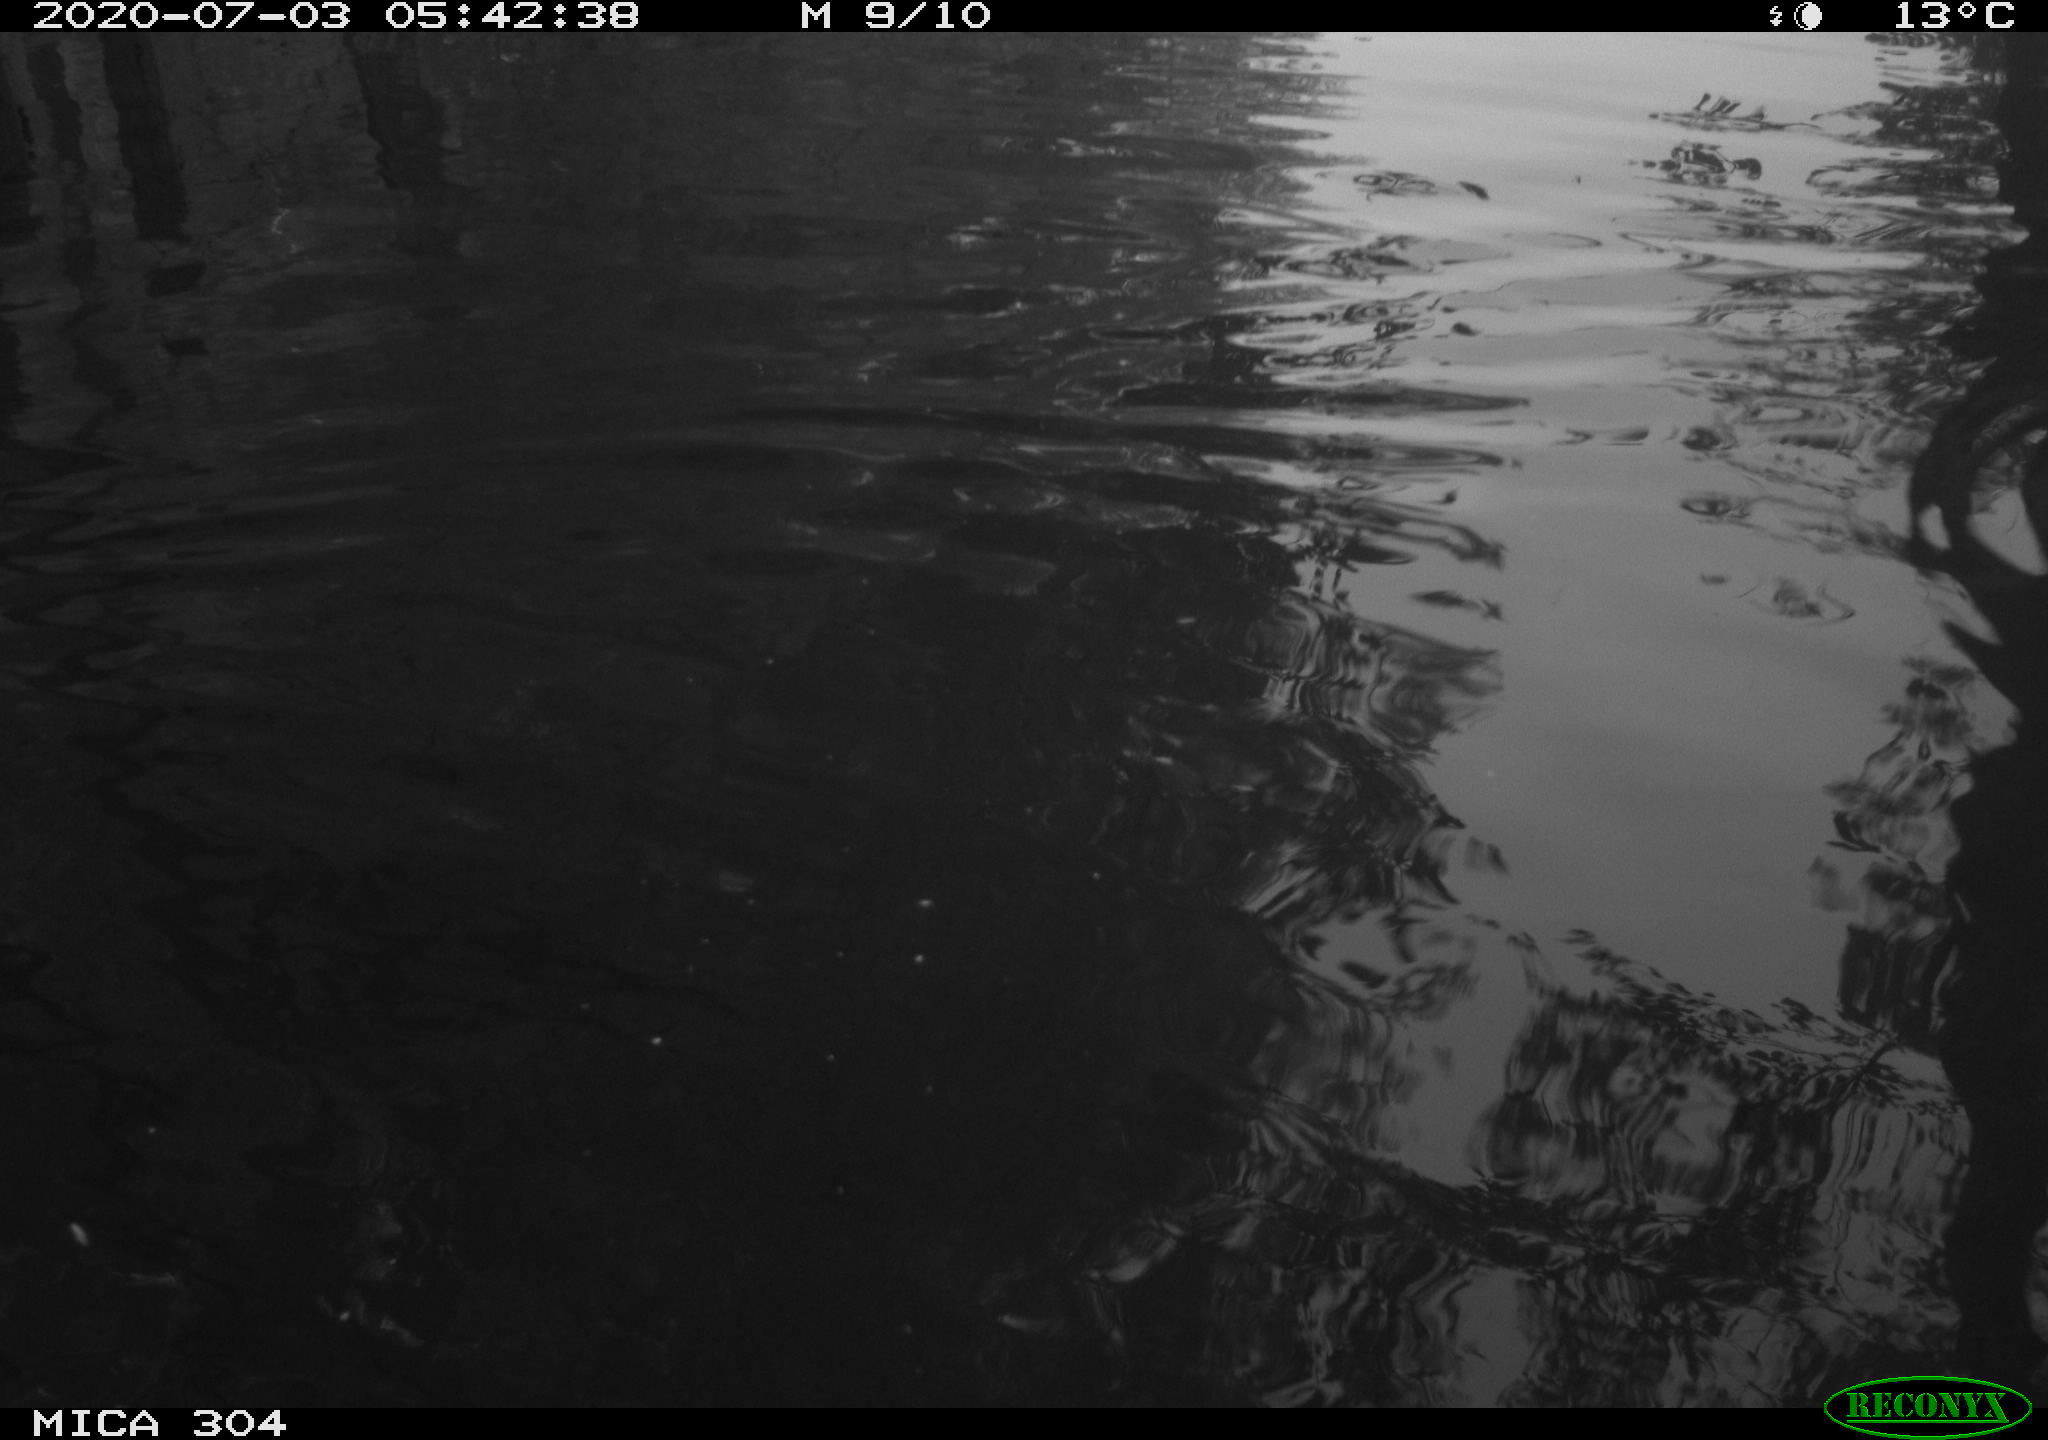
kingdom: Animalia
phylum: Chordata
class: Aves
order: Anseriformes
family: Anatidae
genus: Anas
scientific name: Anas platyrhynchos
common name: Mallard
